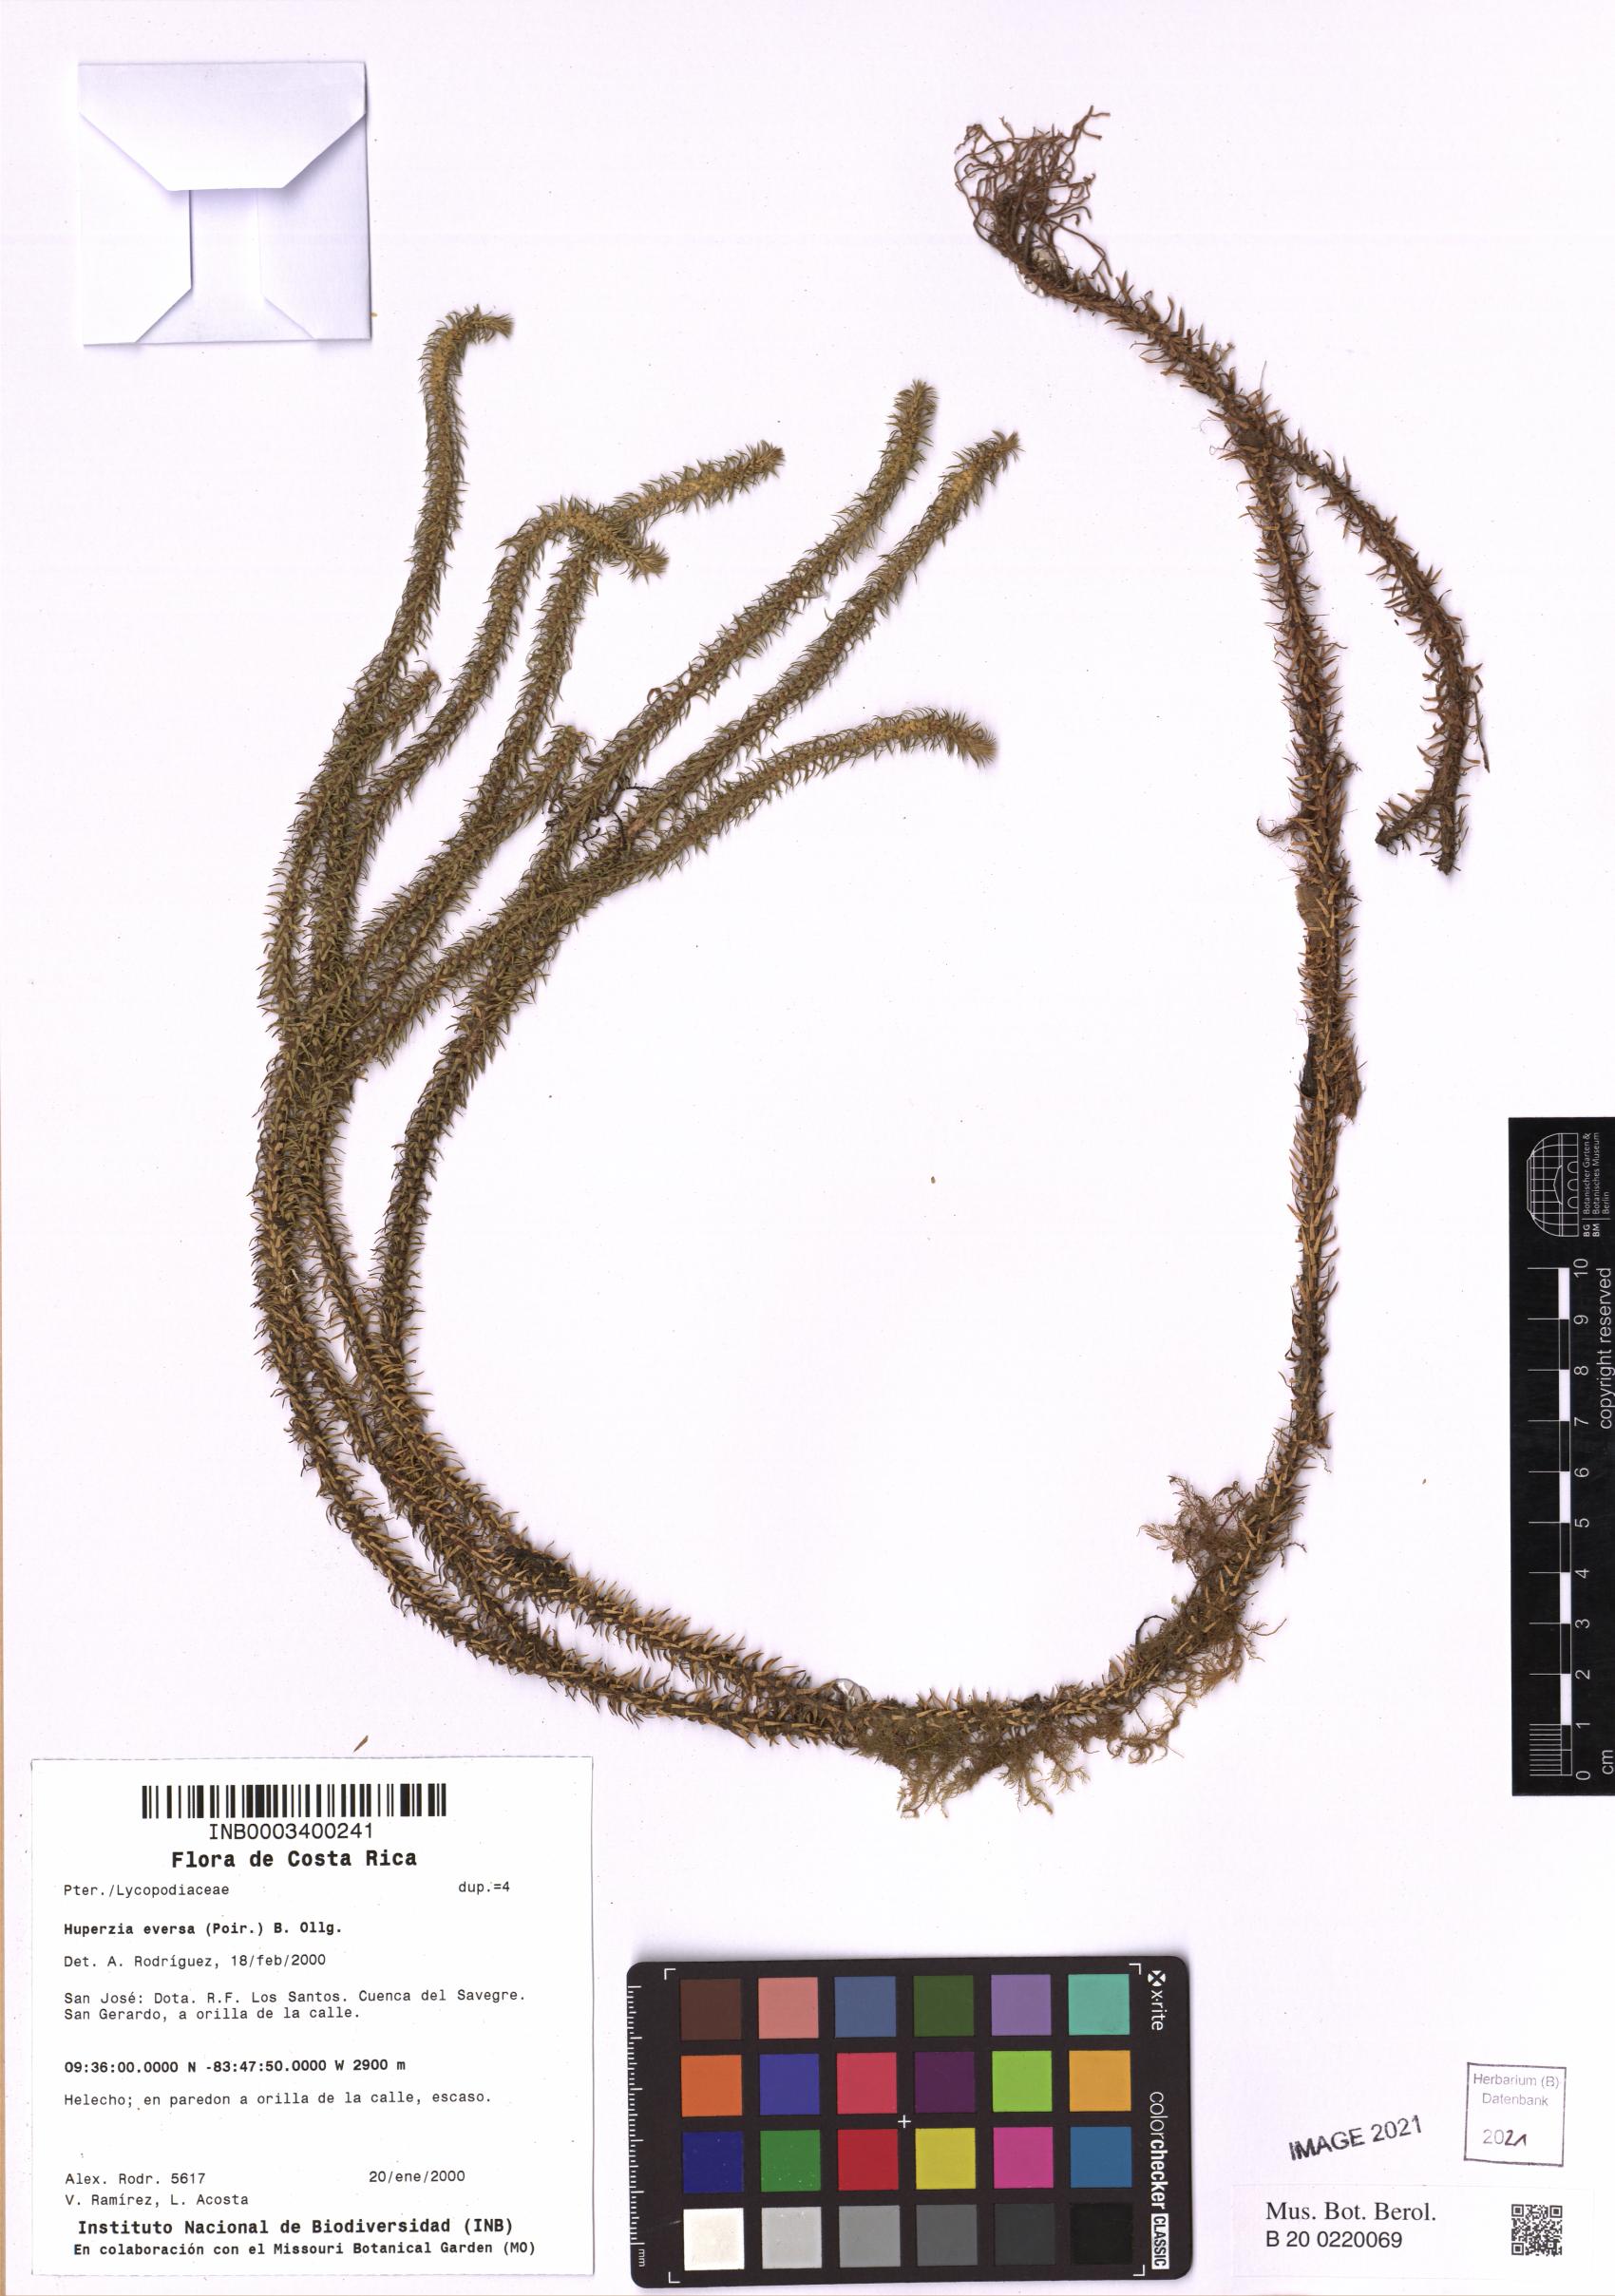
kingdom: Plantae
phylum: Tracheophyta
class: Lycopodiopsida
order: Lycopodiales
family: Lycopodiaceae
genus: Phlegmariurus
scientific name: Phlegmariurus eversus
